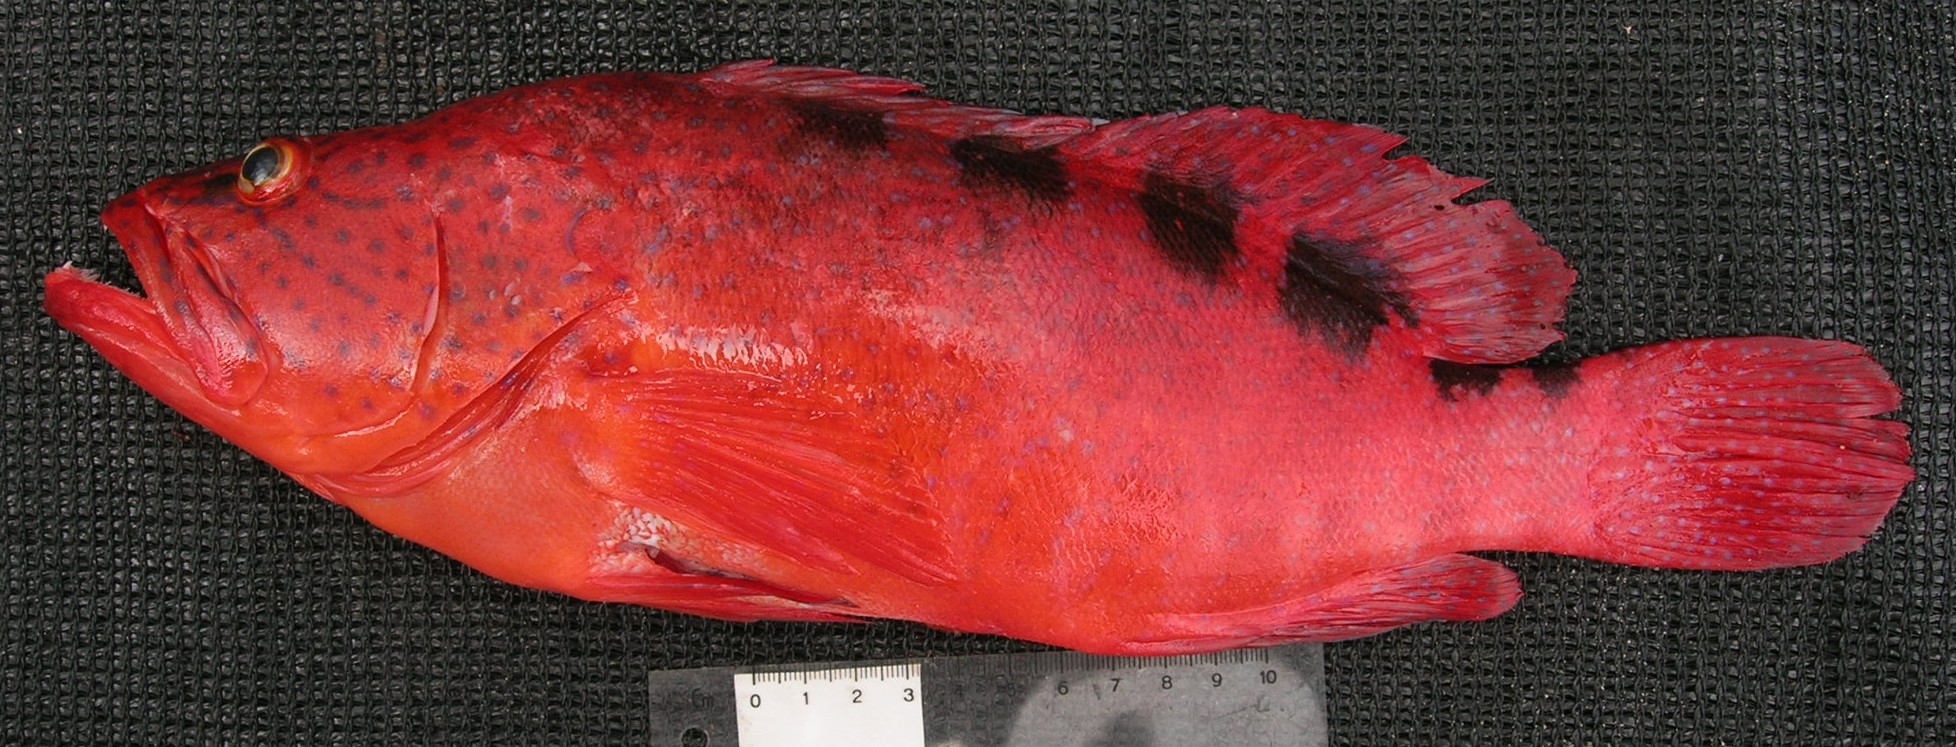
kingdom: Animalia
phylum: Chordata
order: Perciformes
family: Serranidae
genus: Cephalopholis
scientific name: Cephalopholis sexmaculata
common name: Sixblotch hind
